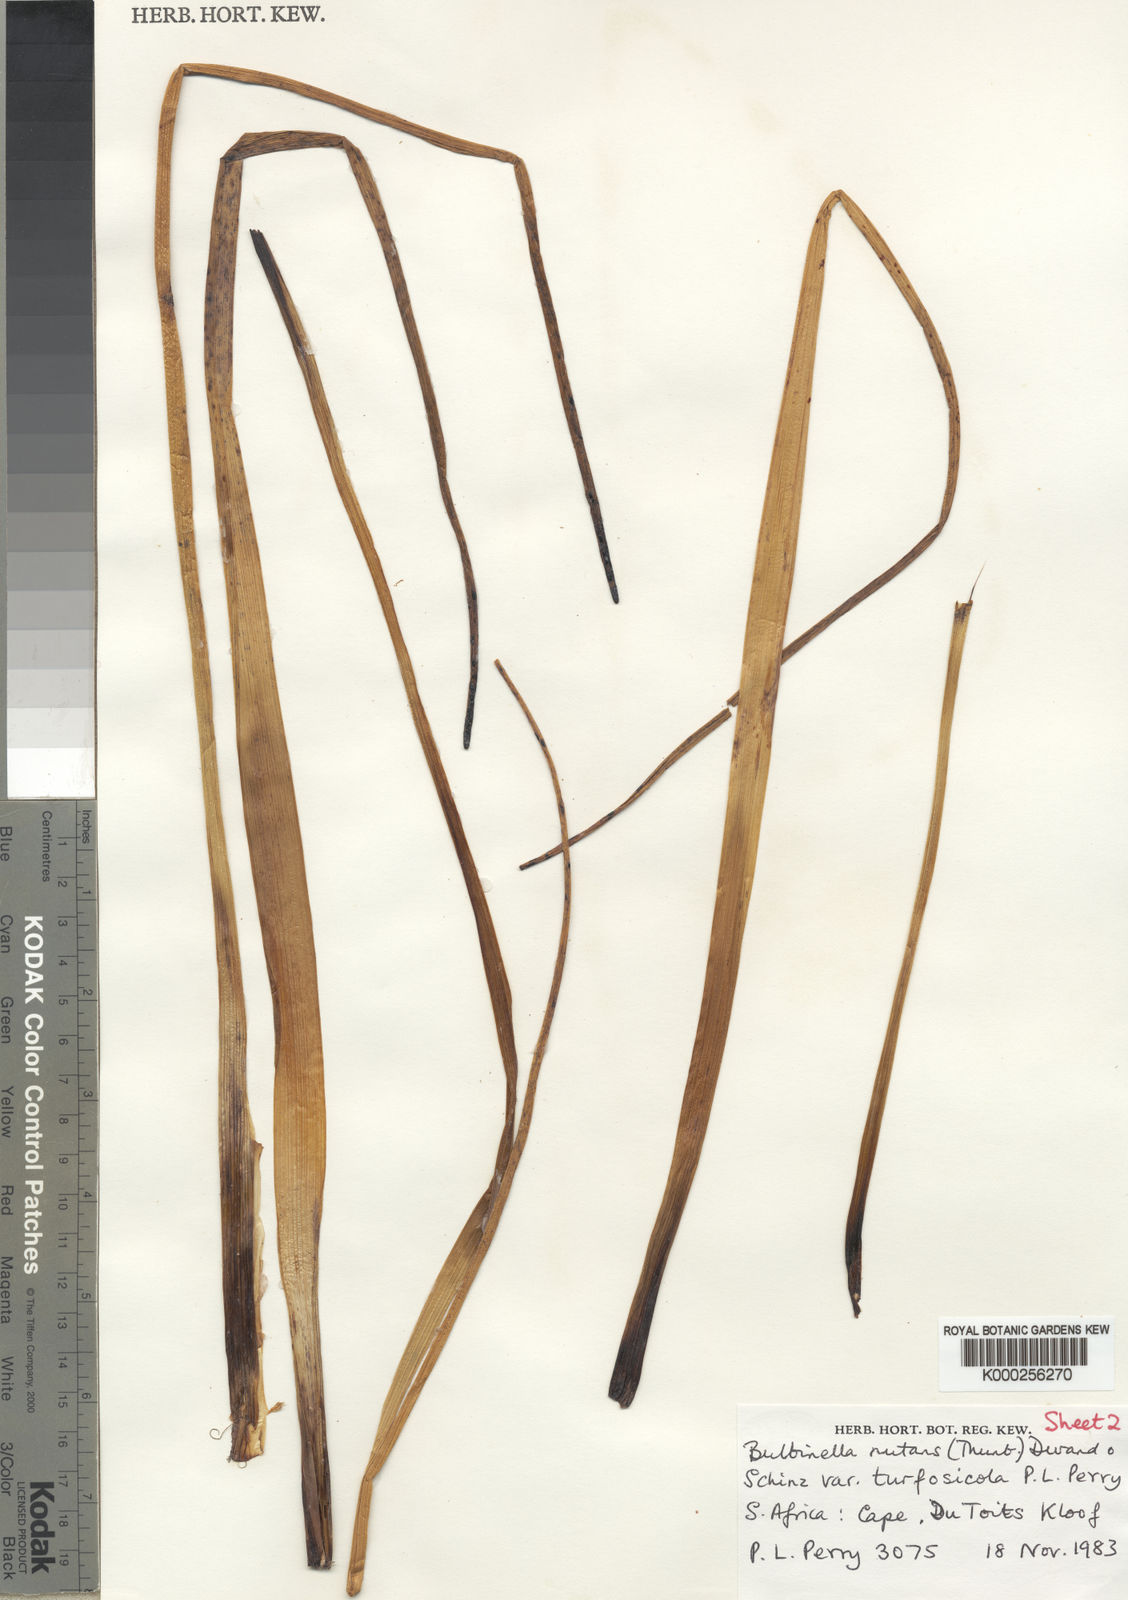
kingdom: Plantae
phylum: Tracheophyta
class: Liliopsida
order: Asparagales
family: Asphodelaceae
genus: Bulbinella
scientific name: Bulbinella nutans
